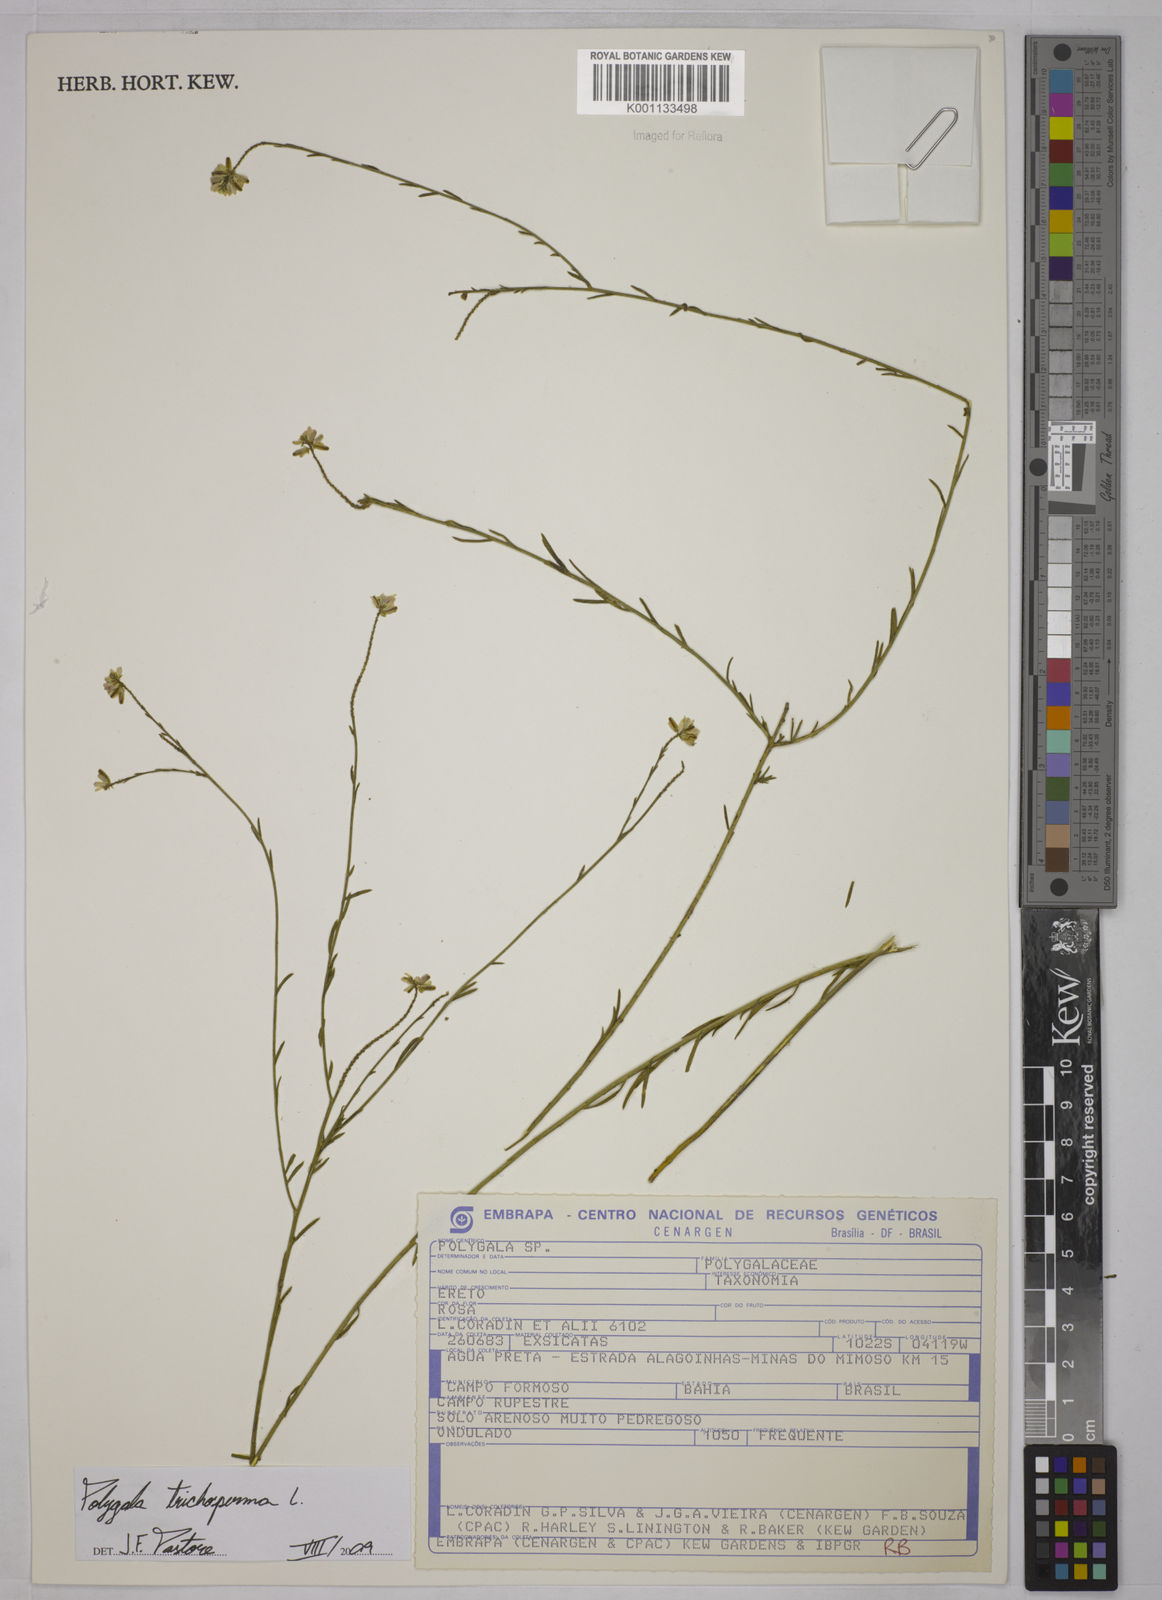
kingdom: Plantae
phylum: Tracheophyta
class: Magnoliopsida
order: Fabales
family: Polygalaceae
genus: Polygala
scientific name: Polygala trichosperma
